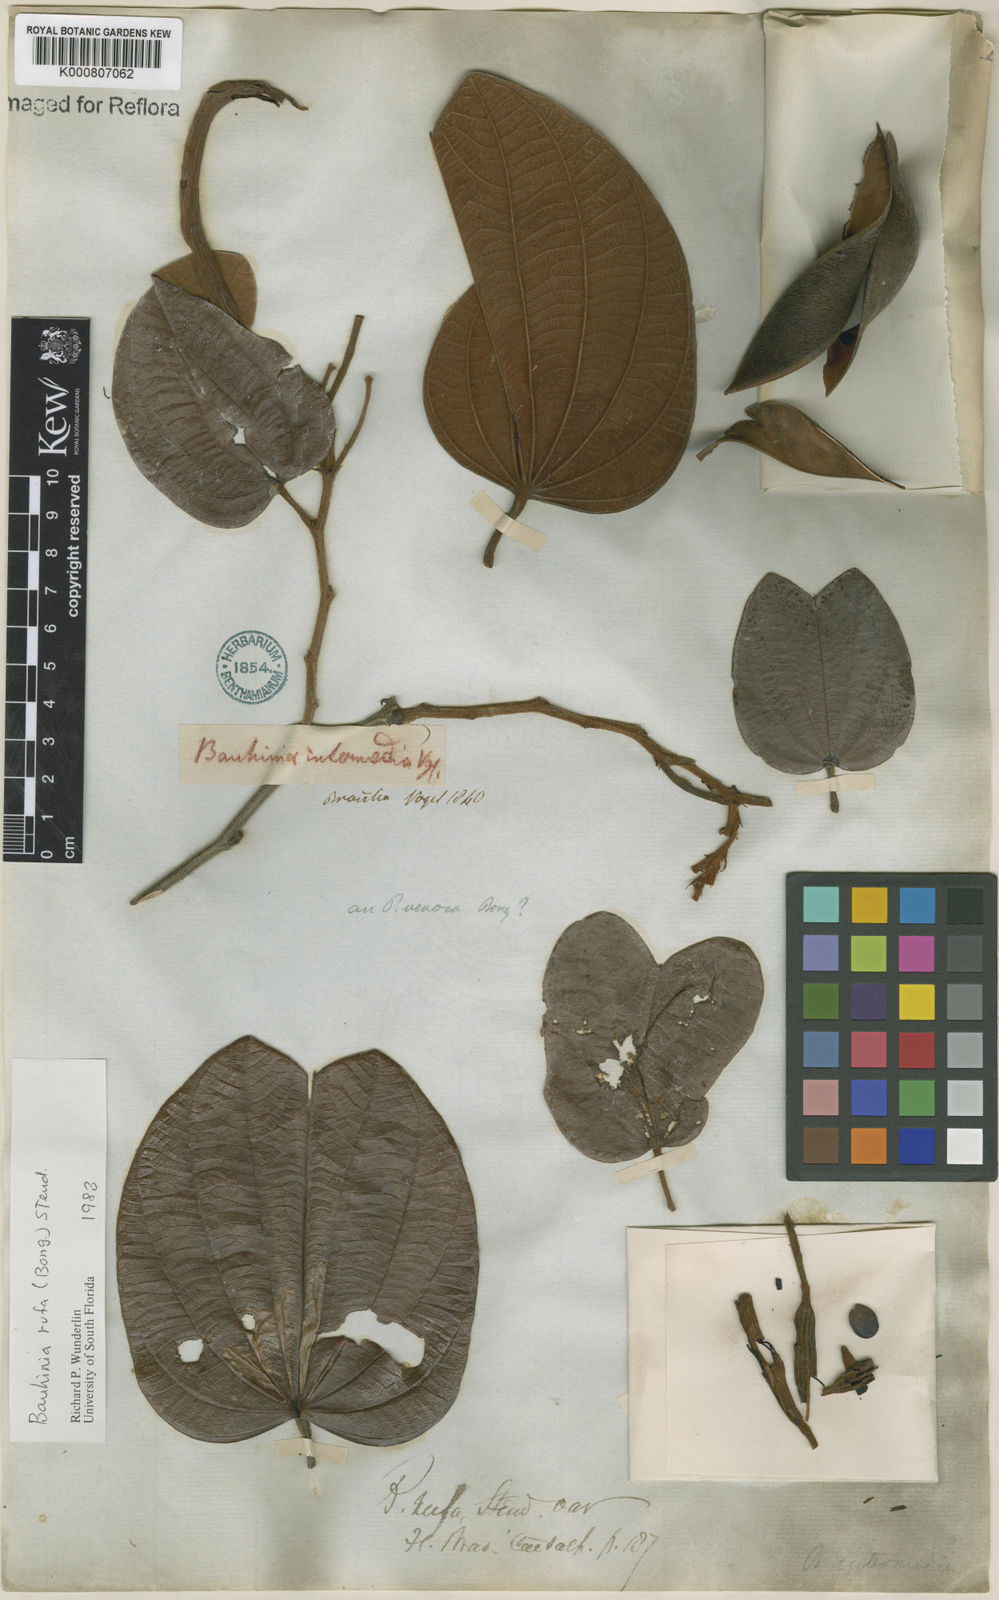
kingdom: Plantae
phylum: Tracheophyta
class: Magnoliopsida
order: Fabales
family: Fabaceae
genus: Bauhinia
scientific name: Bauhinia rufa
